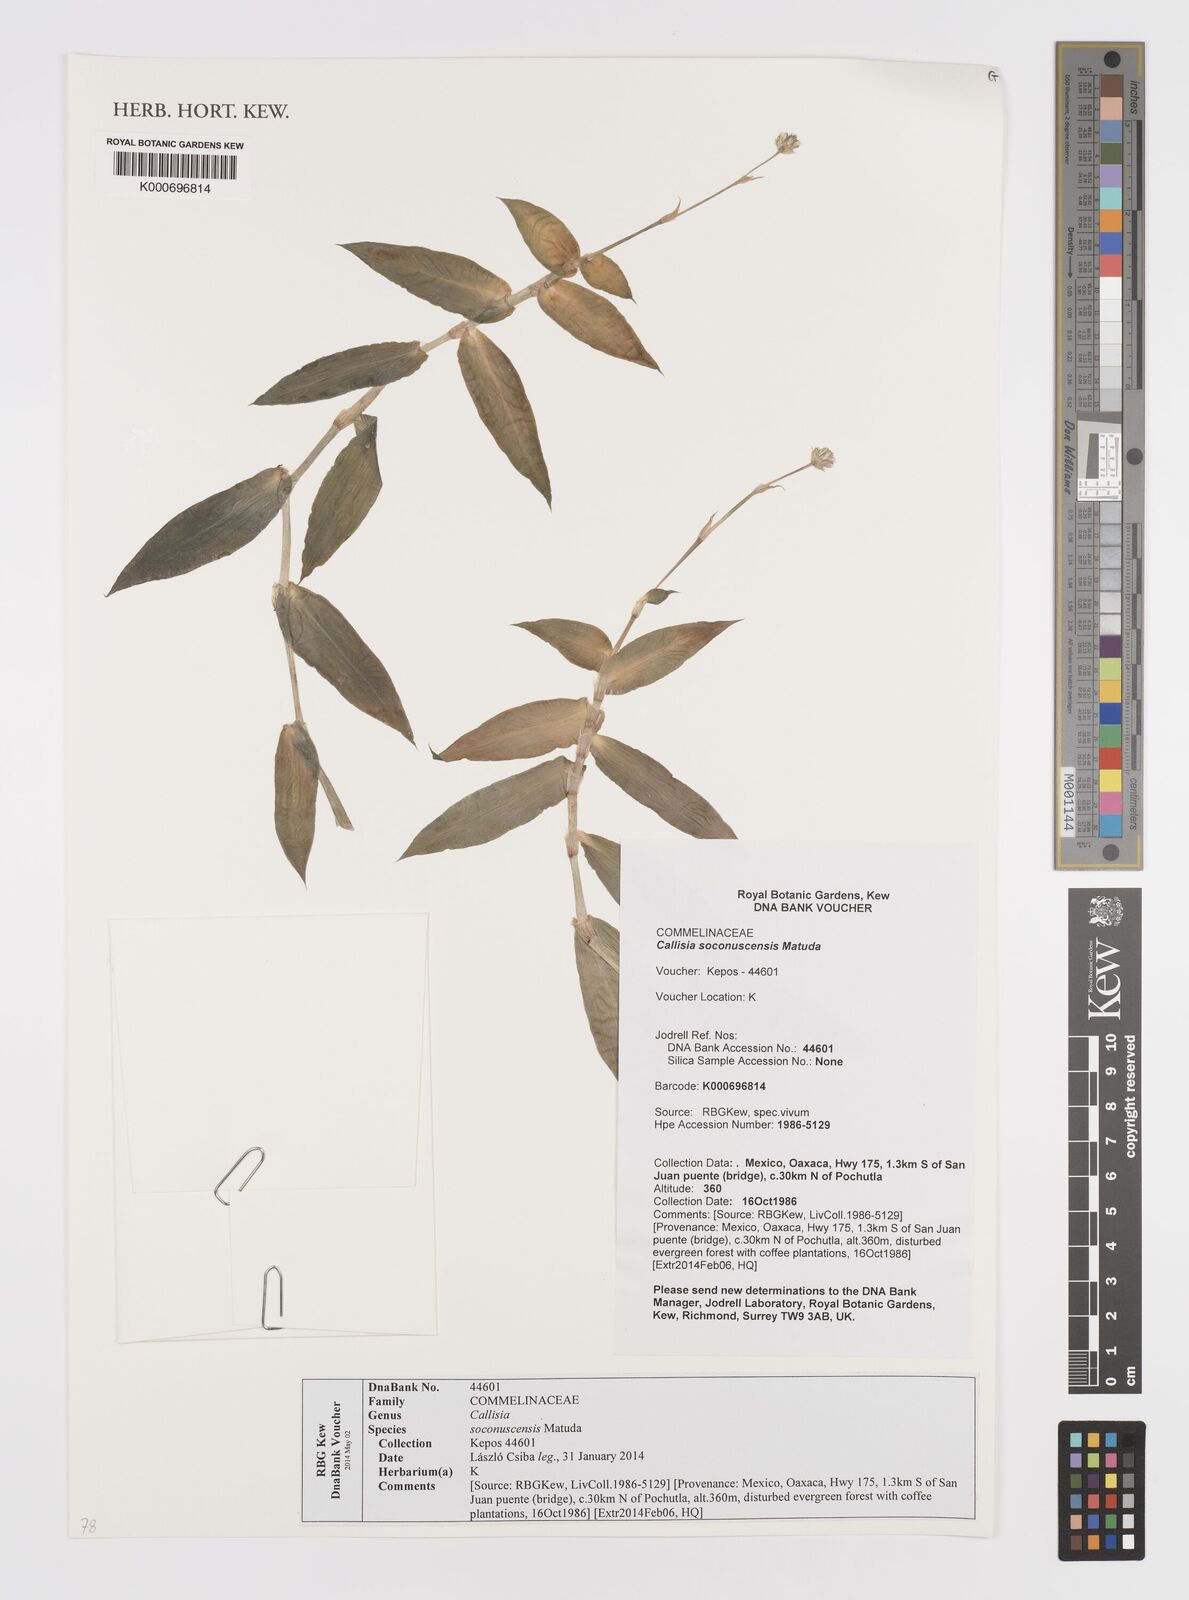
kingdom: Plantae
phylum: Tracheophyta
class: Liliopsida
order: Commelinales
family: Commelinaceae
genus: Callisia
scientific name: Callisia soconuscensis
